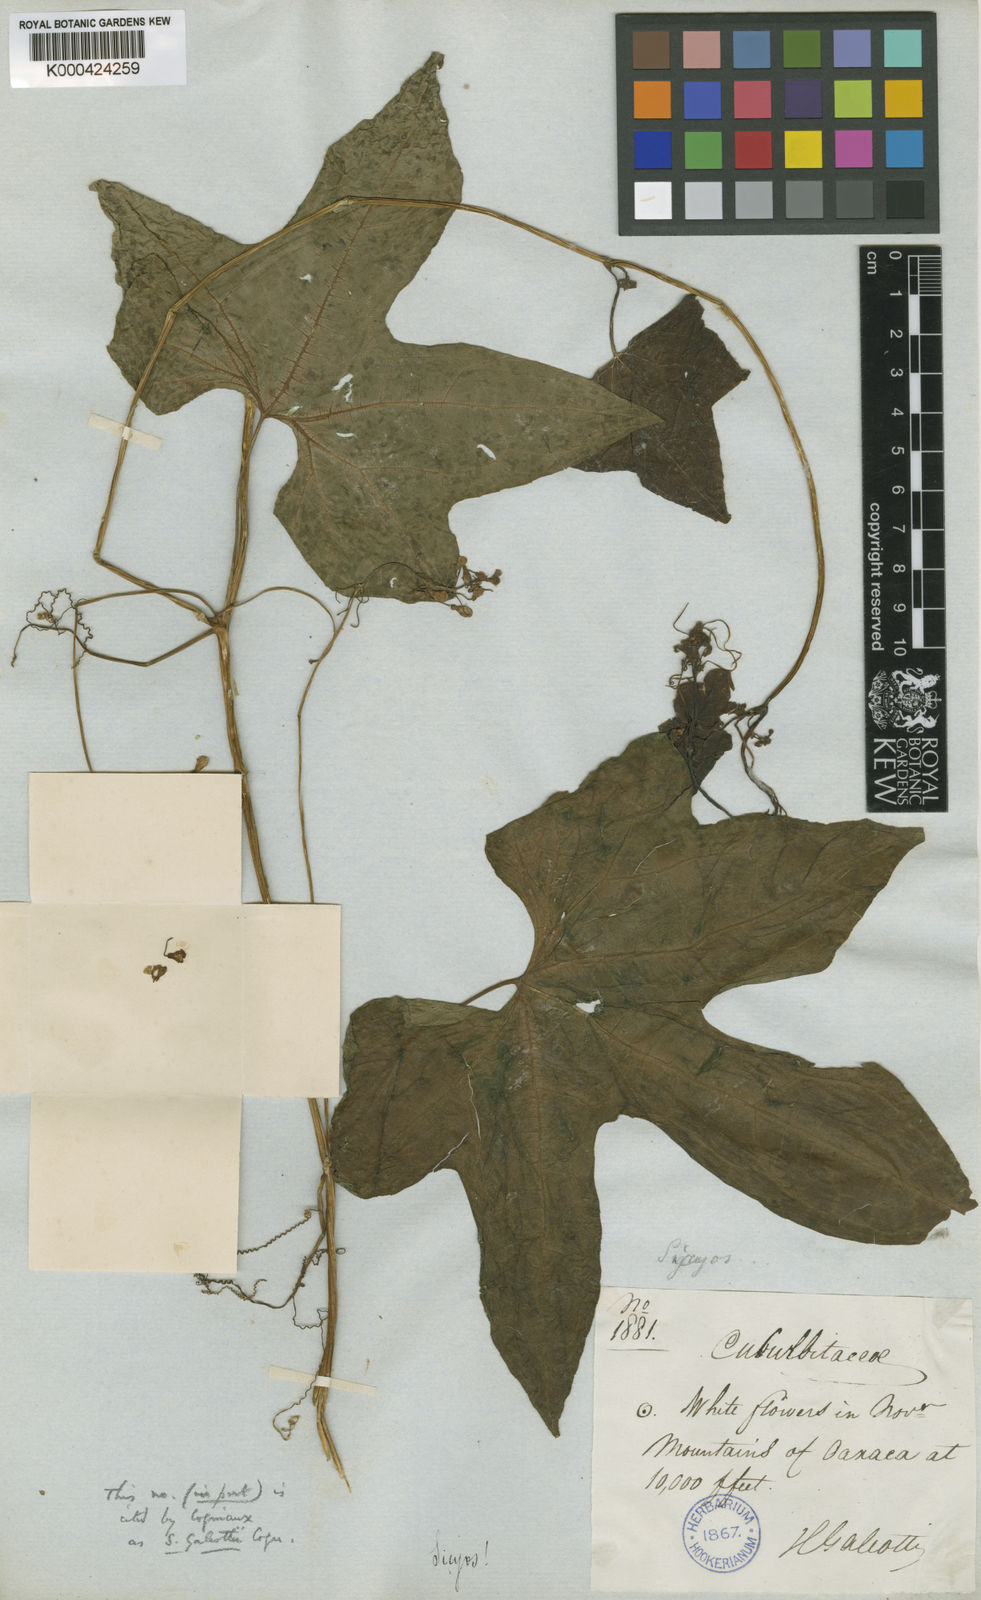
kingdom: Plantae
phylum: Tracheophyta
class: Magnoliopsida
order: Cucurbitales
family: Cucurbitaceae
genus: Parasicyos
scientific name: Parasicyos
